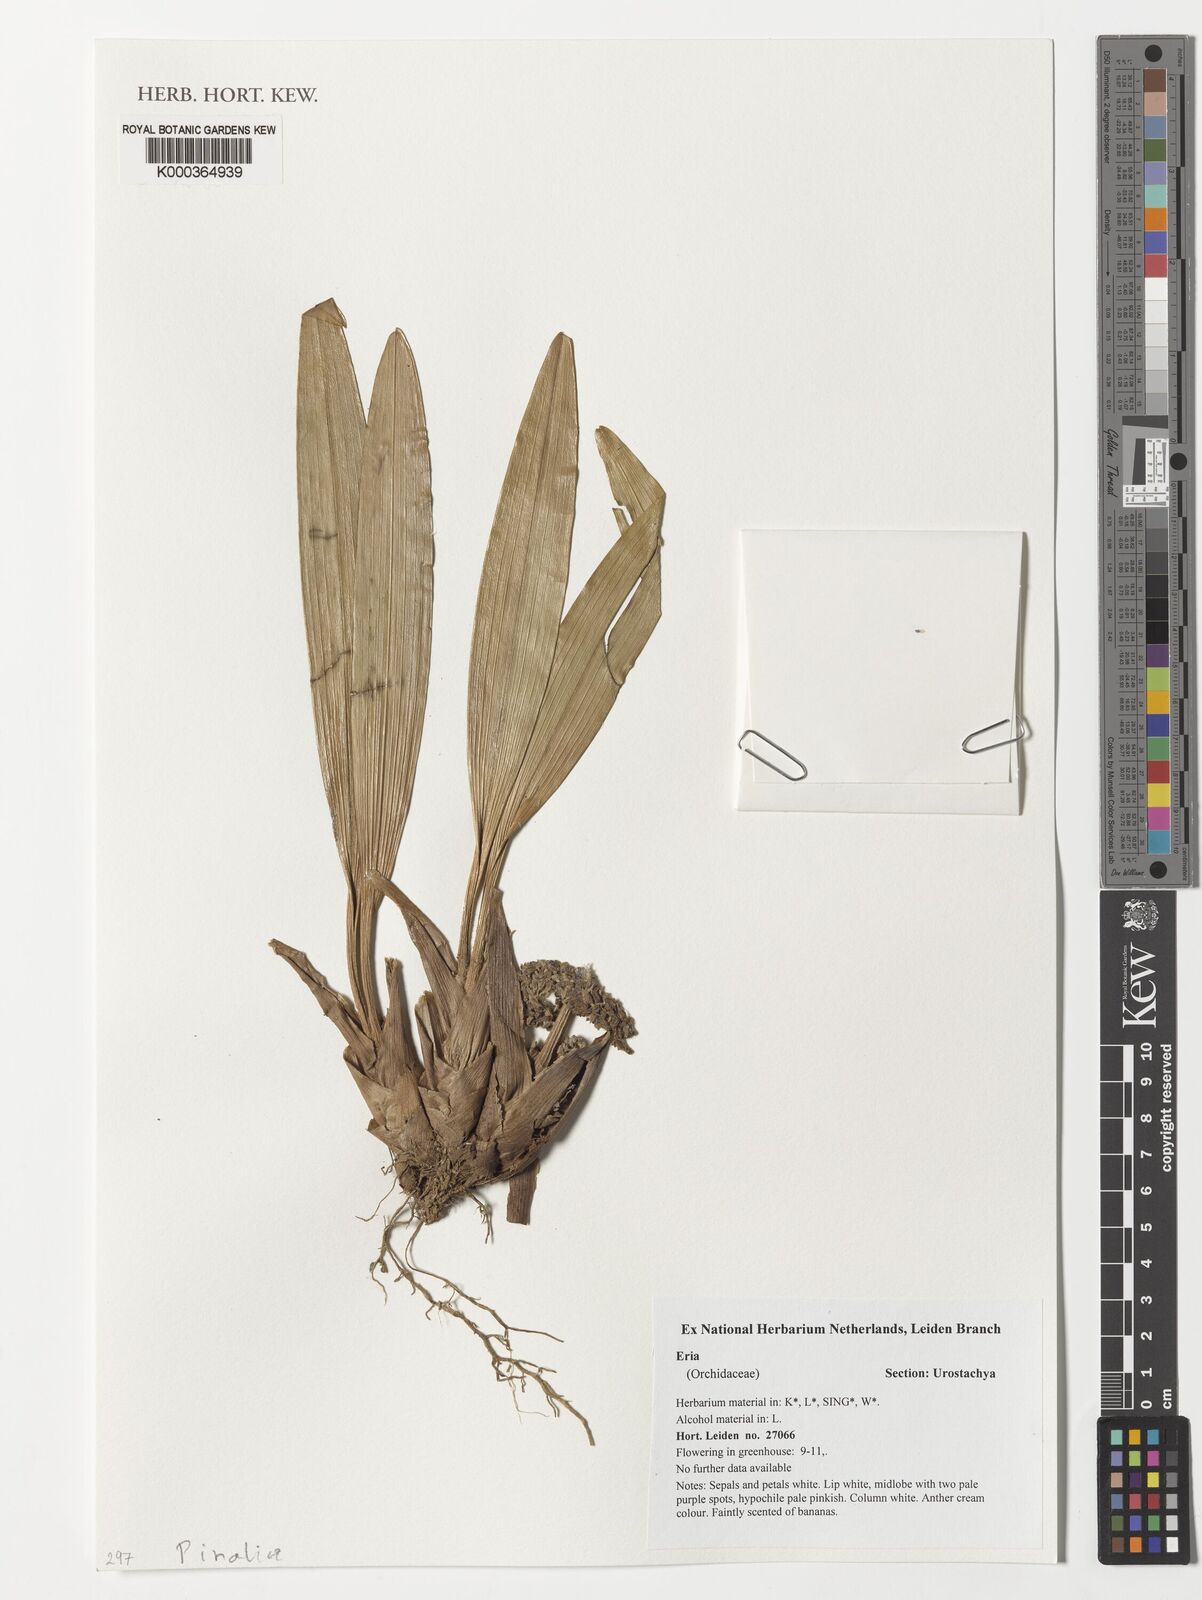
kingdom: Plantae
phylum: Tracheophyta
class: Liliopsida
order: Asparagales
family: Orchidaceae
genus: Eria
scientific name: Eria
